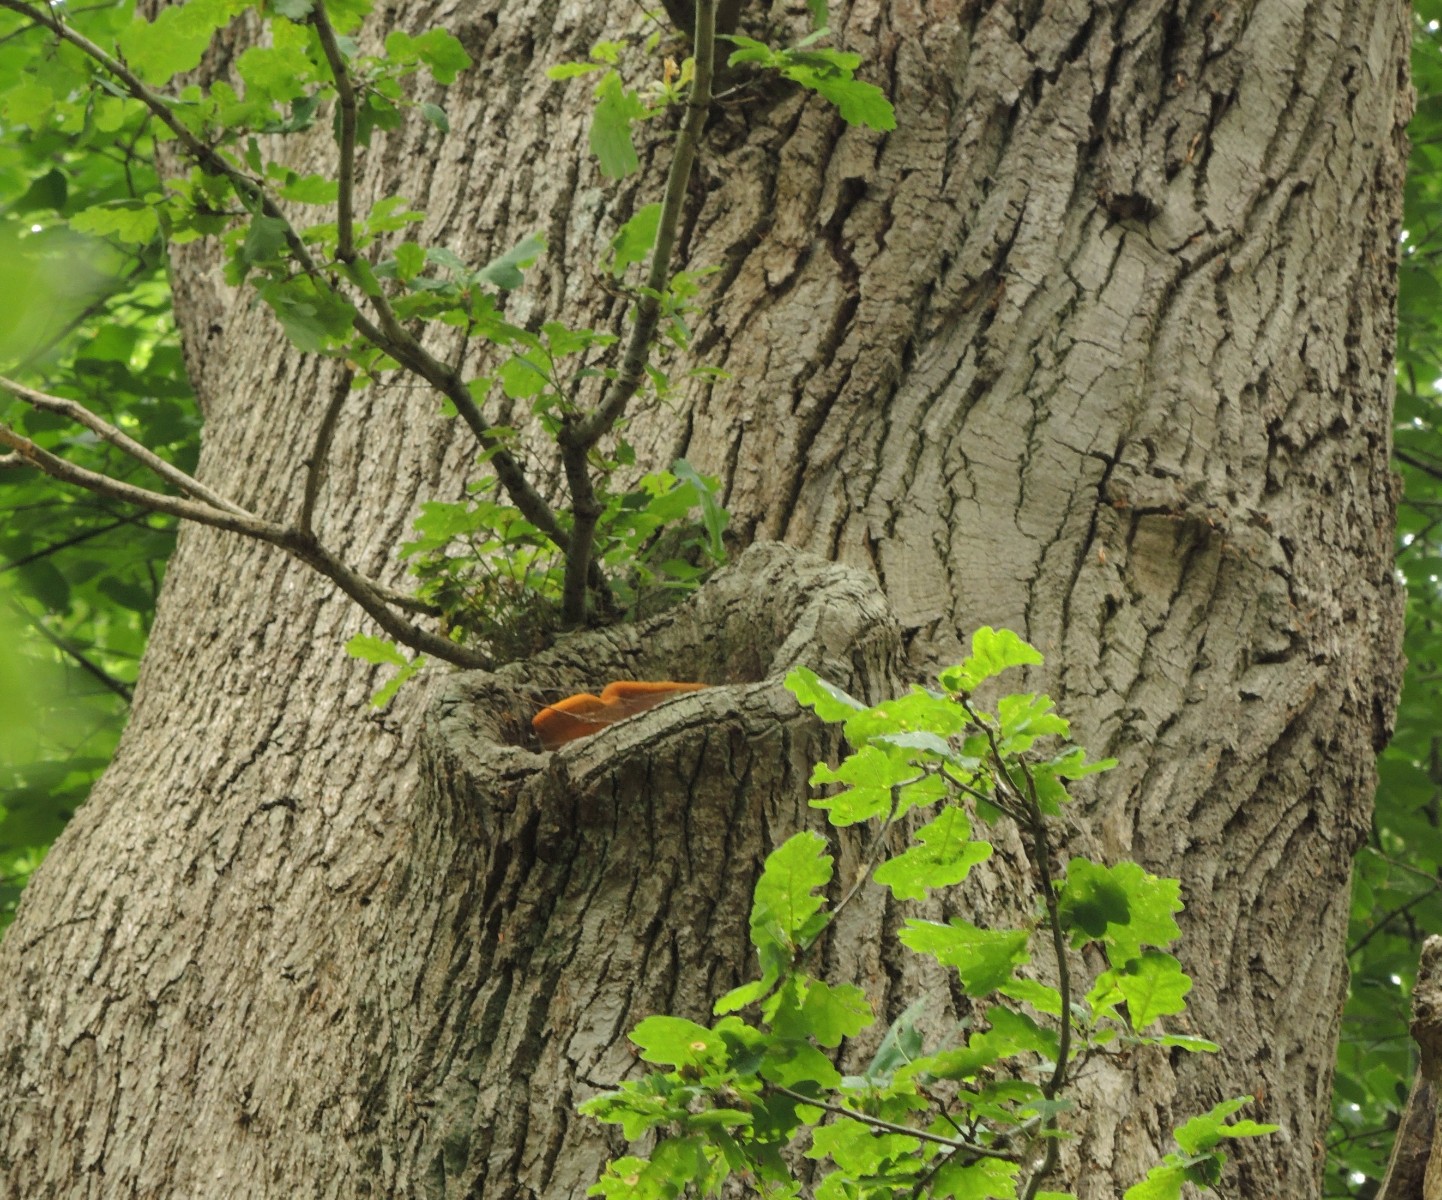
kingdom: Fungi
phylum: Basidiomycota
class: Agaricomycetes
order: Polyporales
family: Phanerochaetaceae
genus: Hapalopilus
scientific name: Hapalopilus croceus
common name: safrangul pragtporesvamp
